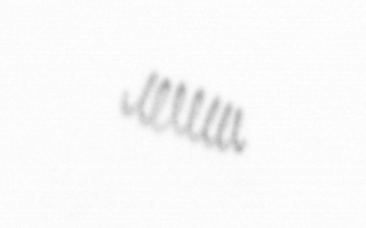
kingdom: Chromista
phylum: Ochrophyta
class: Bacillariophyceae
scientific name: Bacillariophyceae
